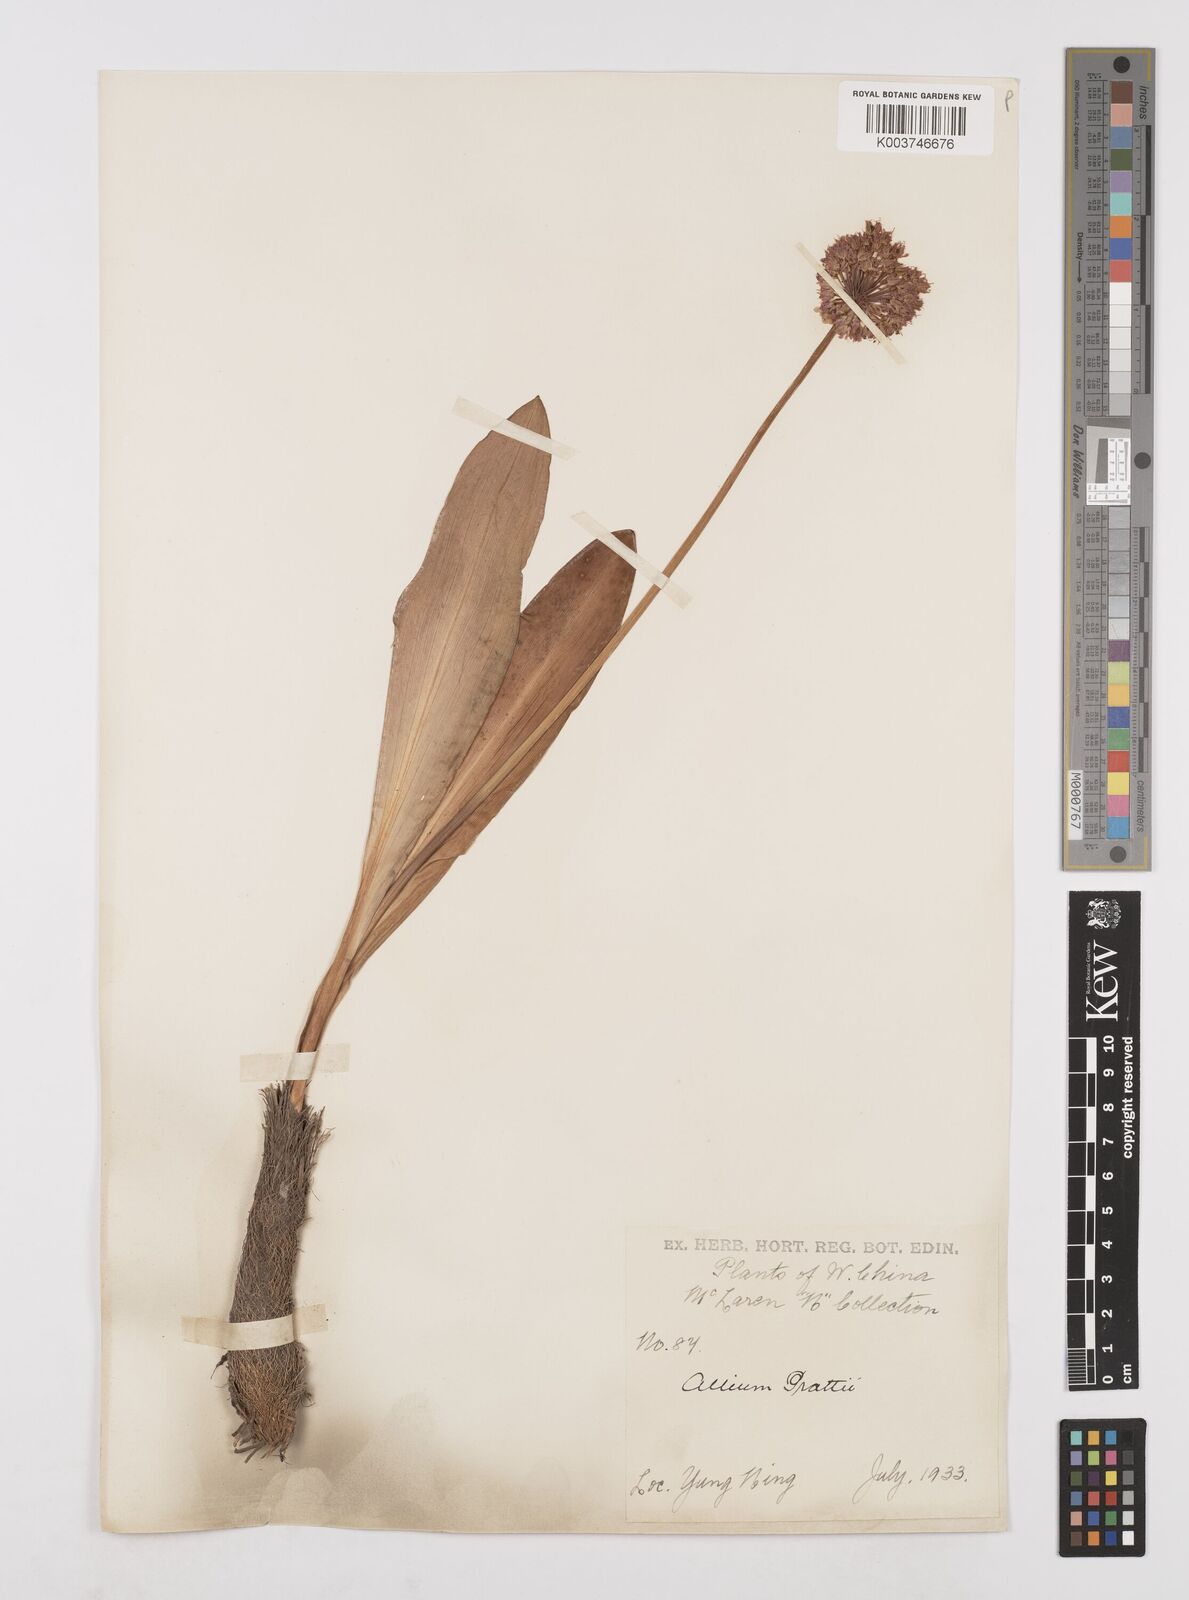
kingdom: Plantae
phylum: Tracheophyta
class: Liliopsida
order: Asparagales
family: Amaryllidaceae
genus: Allium
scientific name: Allium prattii
